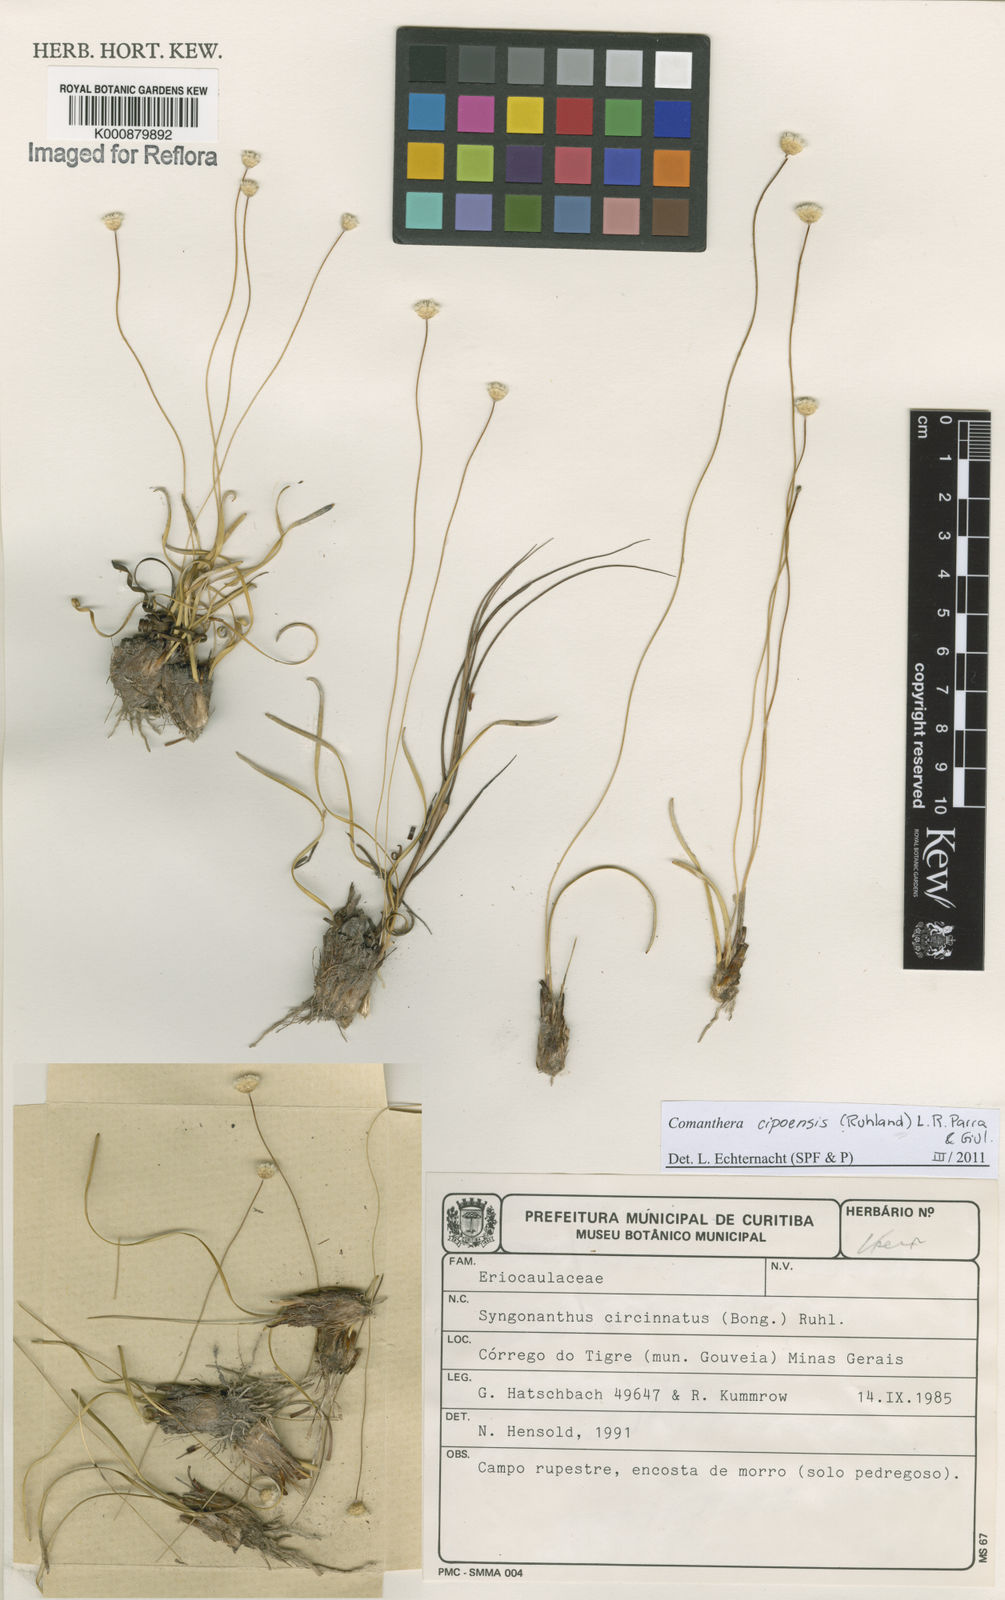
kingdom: Plantae
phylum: Tracheophyta
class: Liliopsida
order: Poales
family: Eriocaulaceae
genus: Comanthera
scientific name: Comanthera cipoensis
